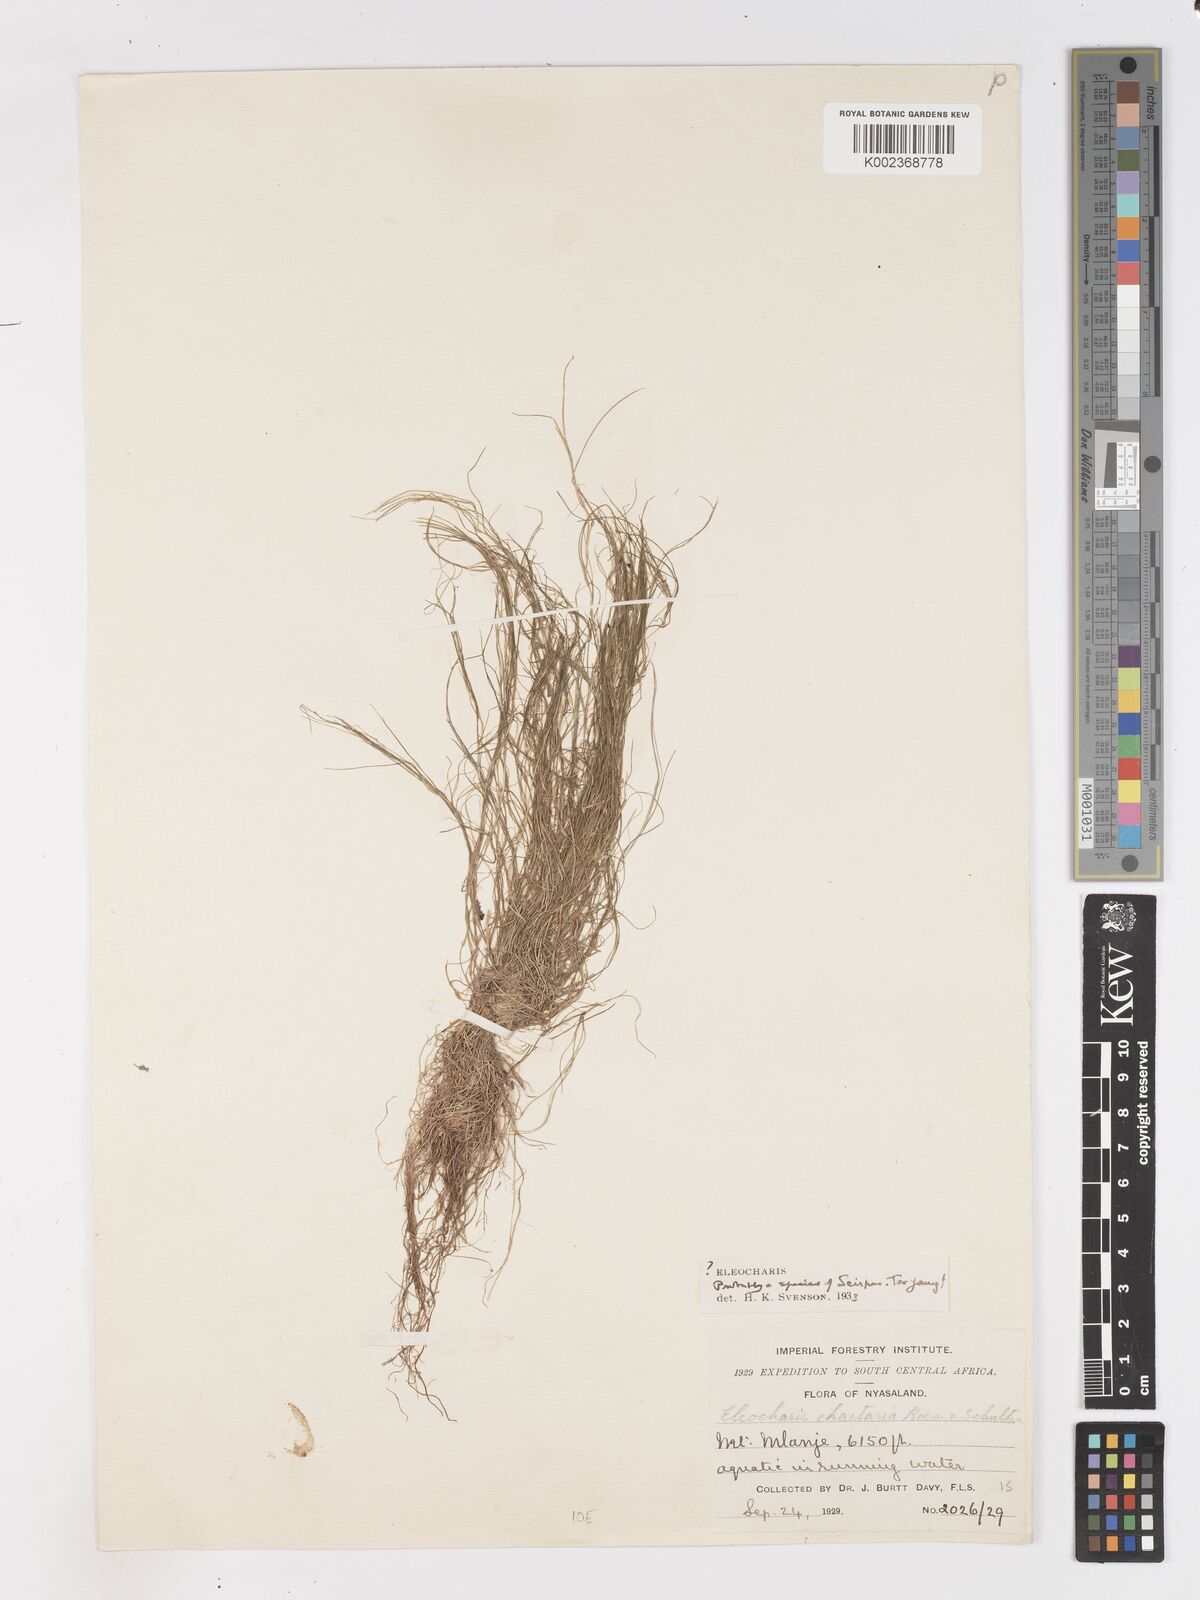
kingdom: Plantae
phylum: Tracheophyta
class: Liliopsida
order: Poales
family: Cyperaceae
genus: Isolepis
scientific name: Isolepis crassiuscula
